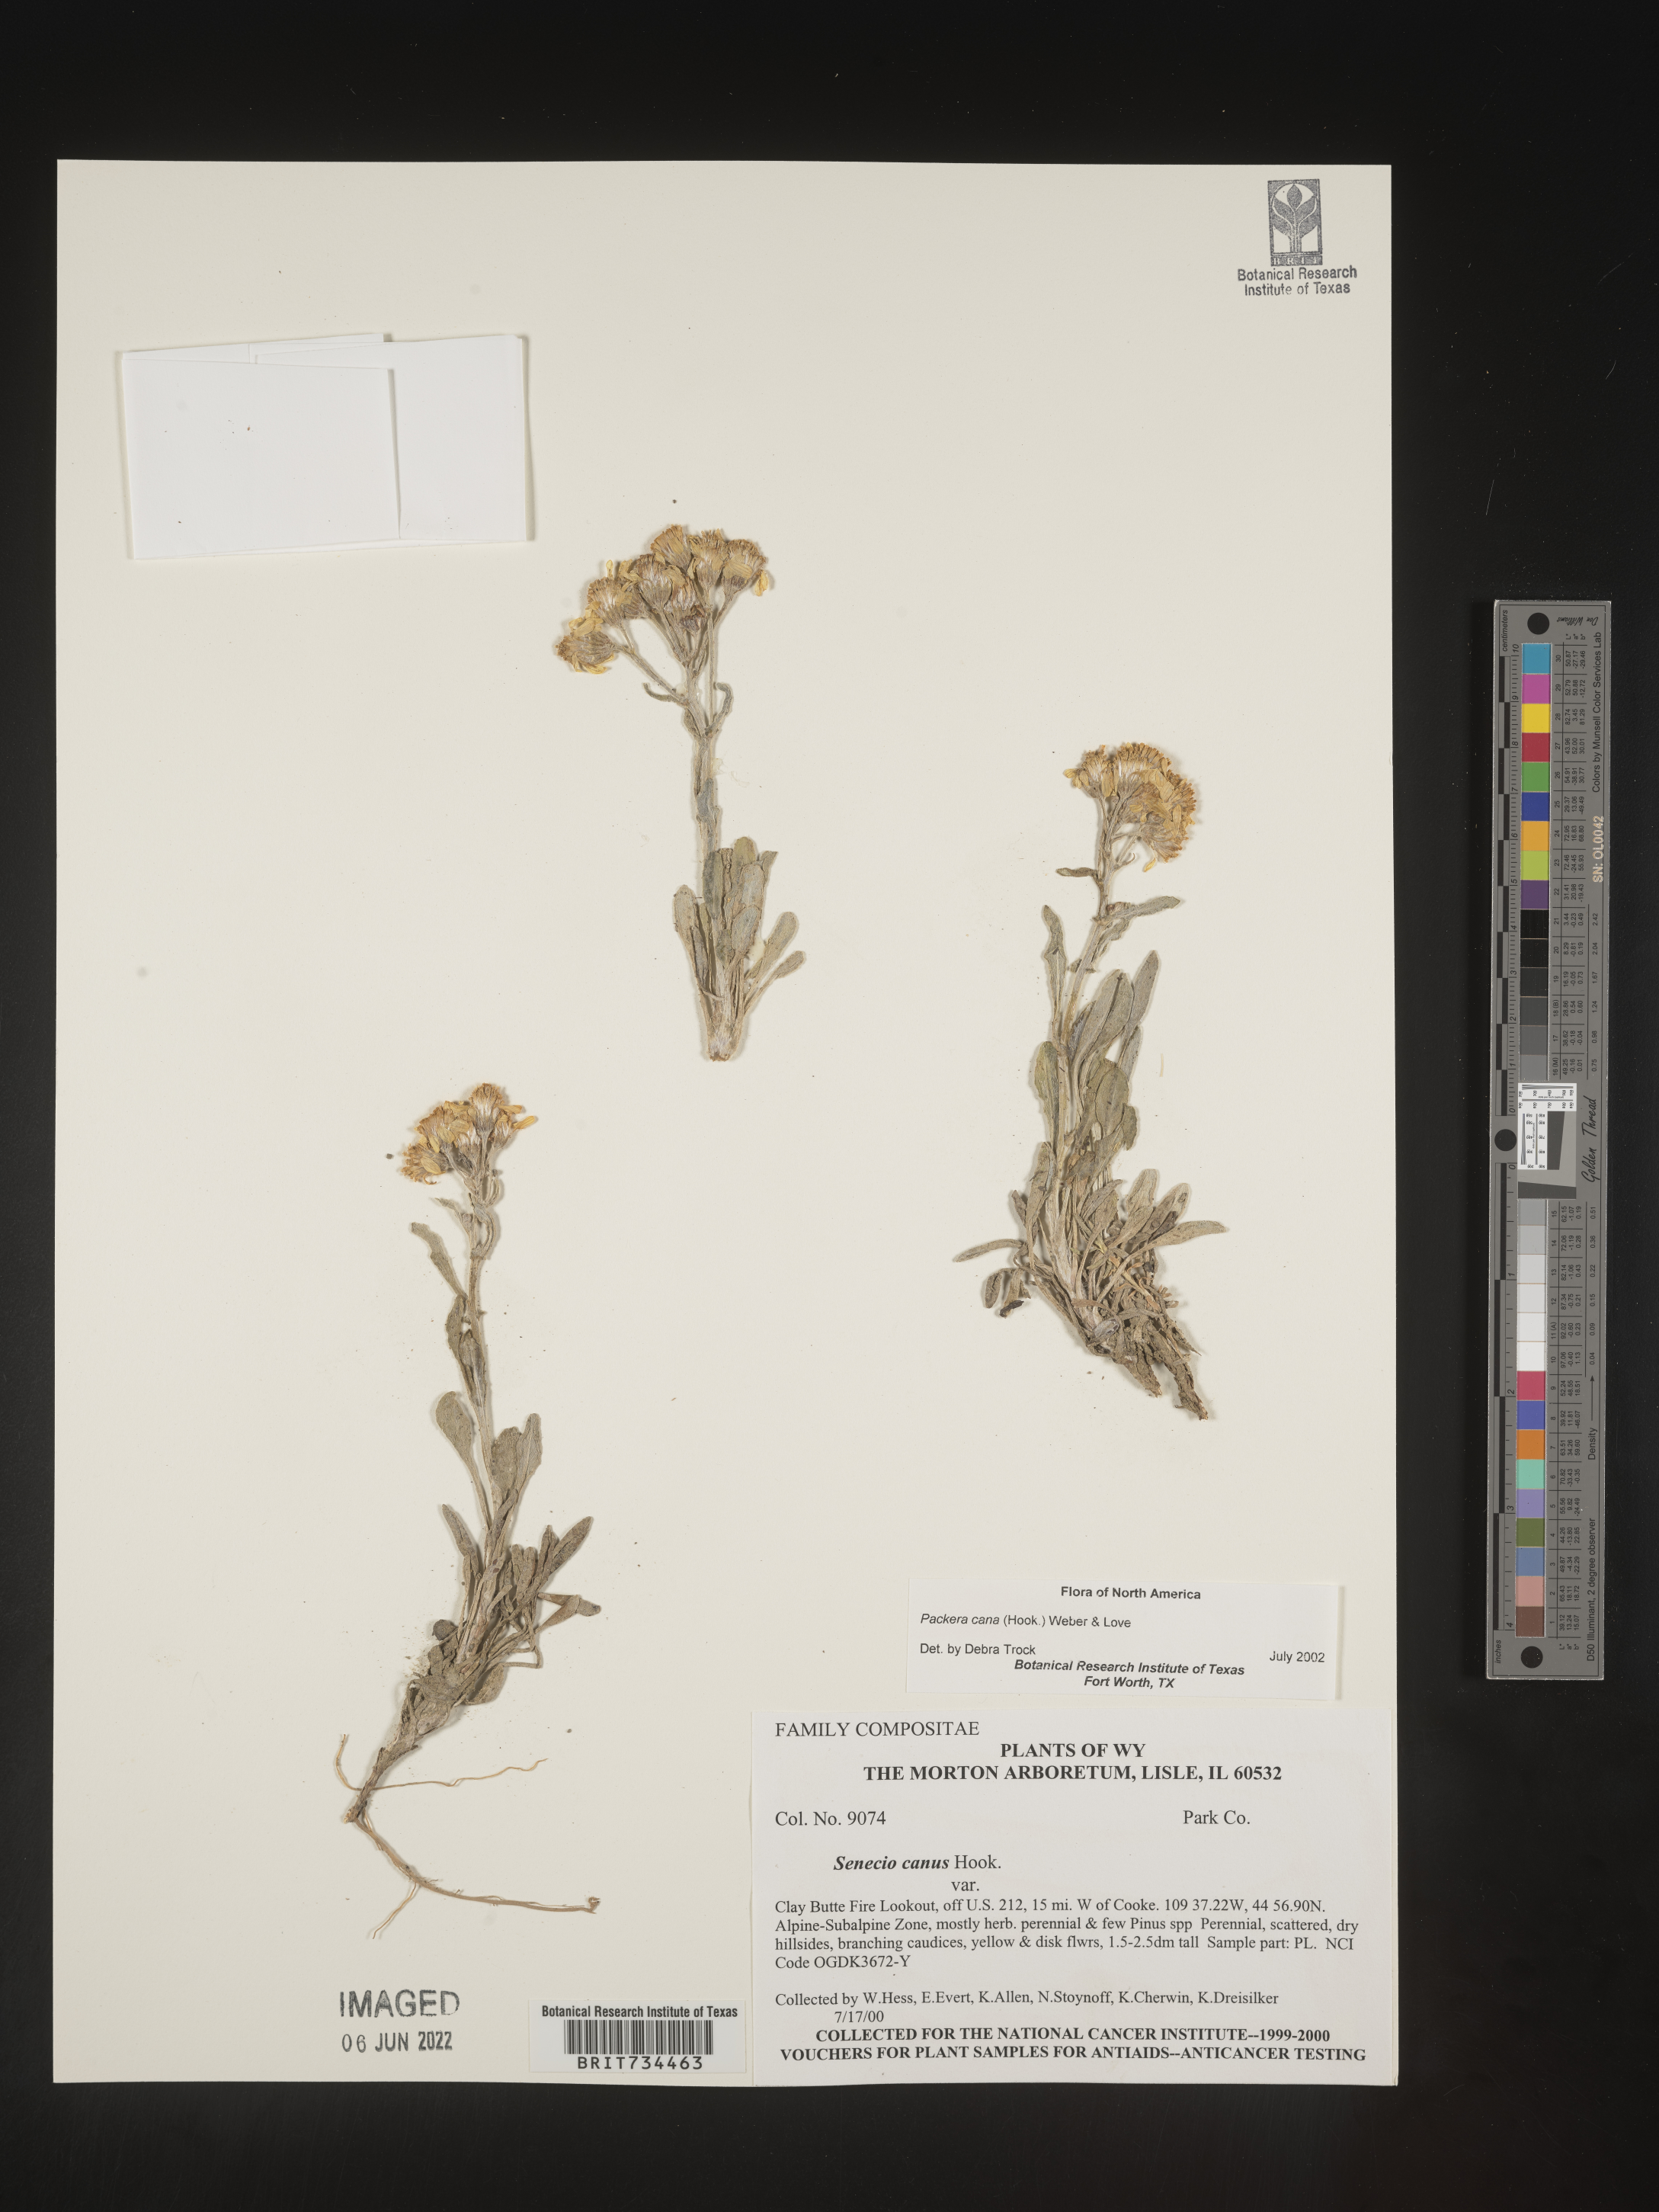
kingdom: Plantae
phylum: Tracheophyta
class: Magnoliopsida
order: Asterales
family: Asteraceae
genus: Packera
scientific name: Packera cana
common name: Woolly groundsel
